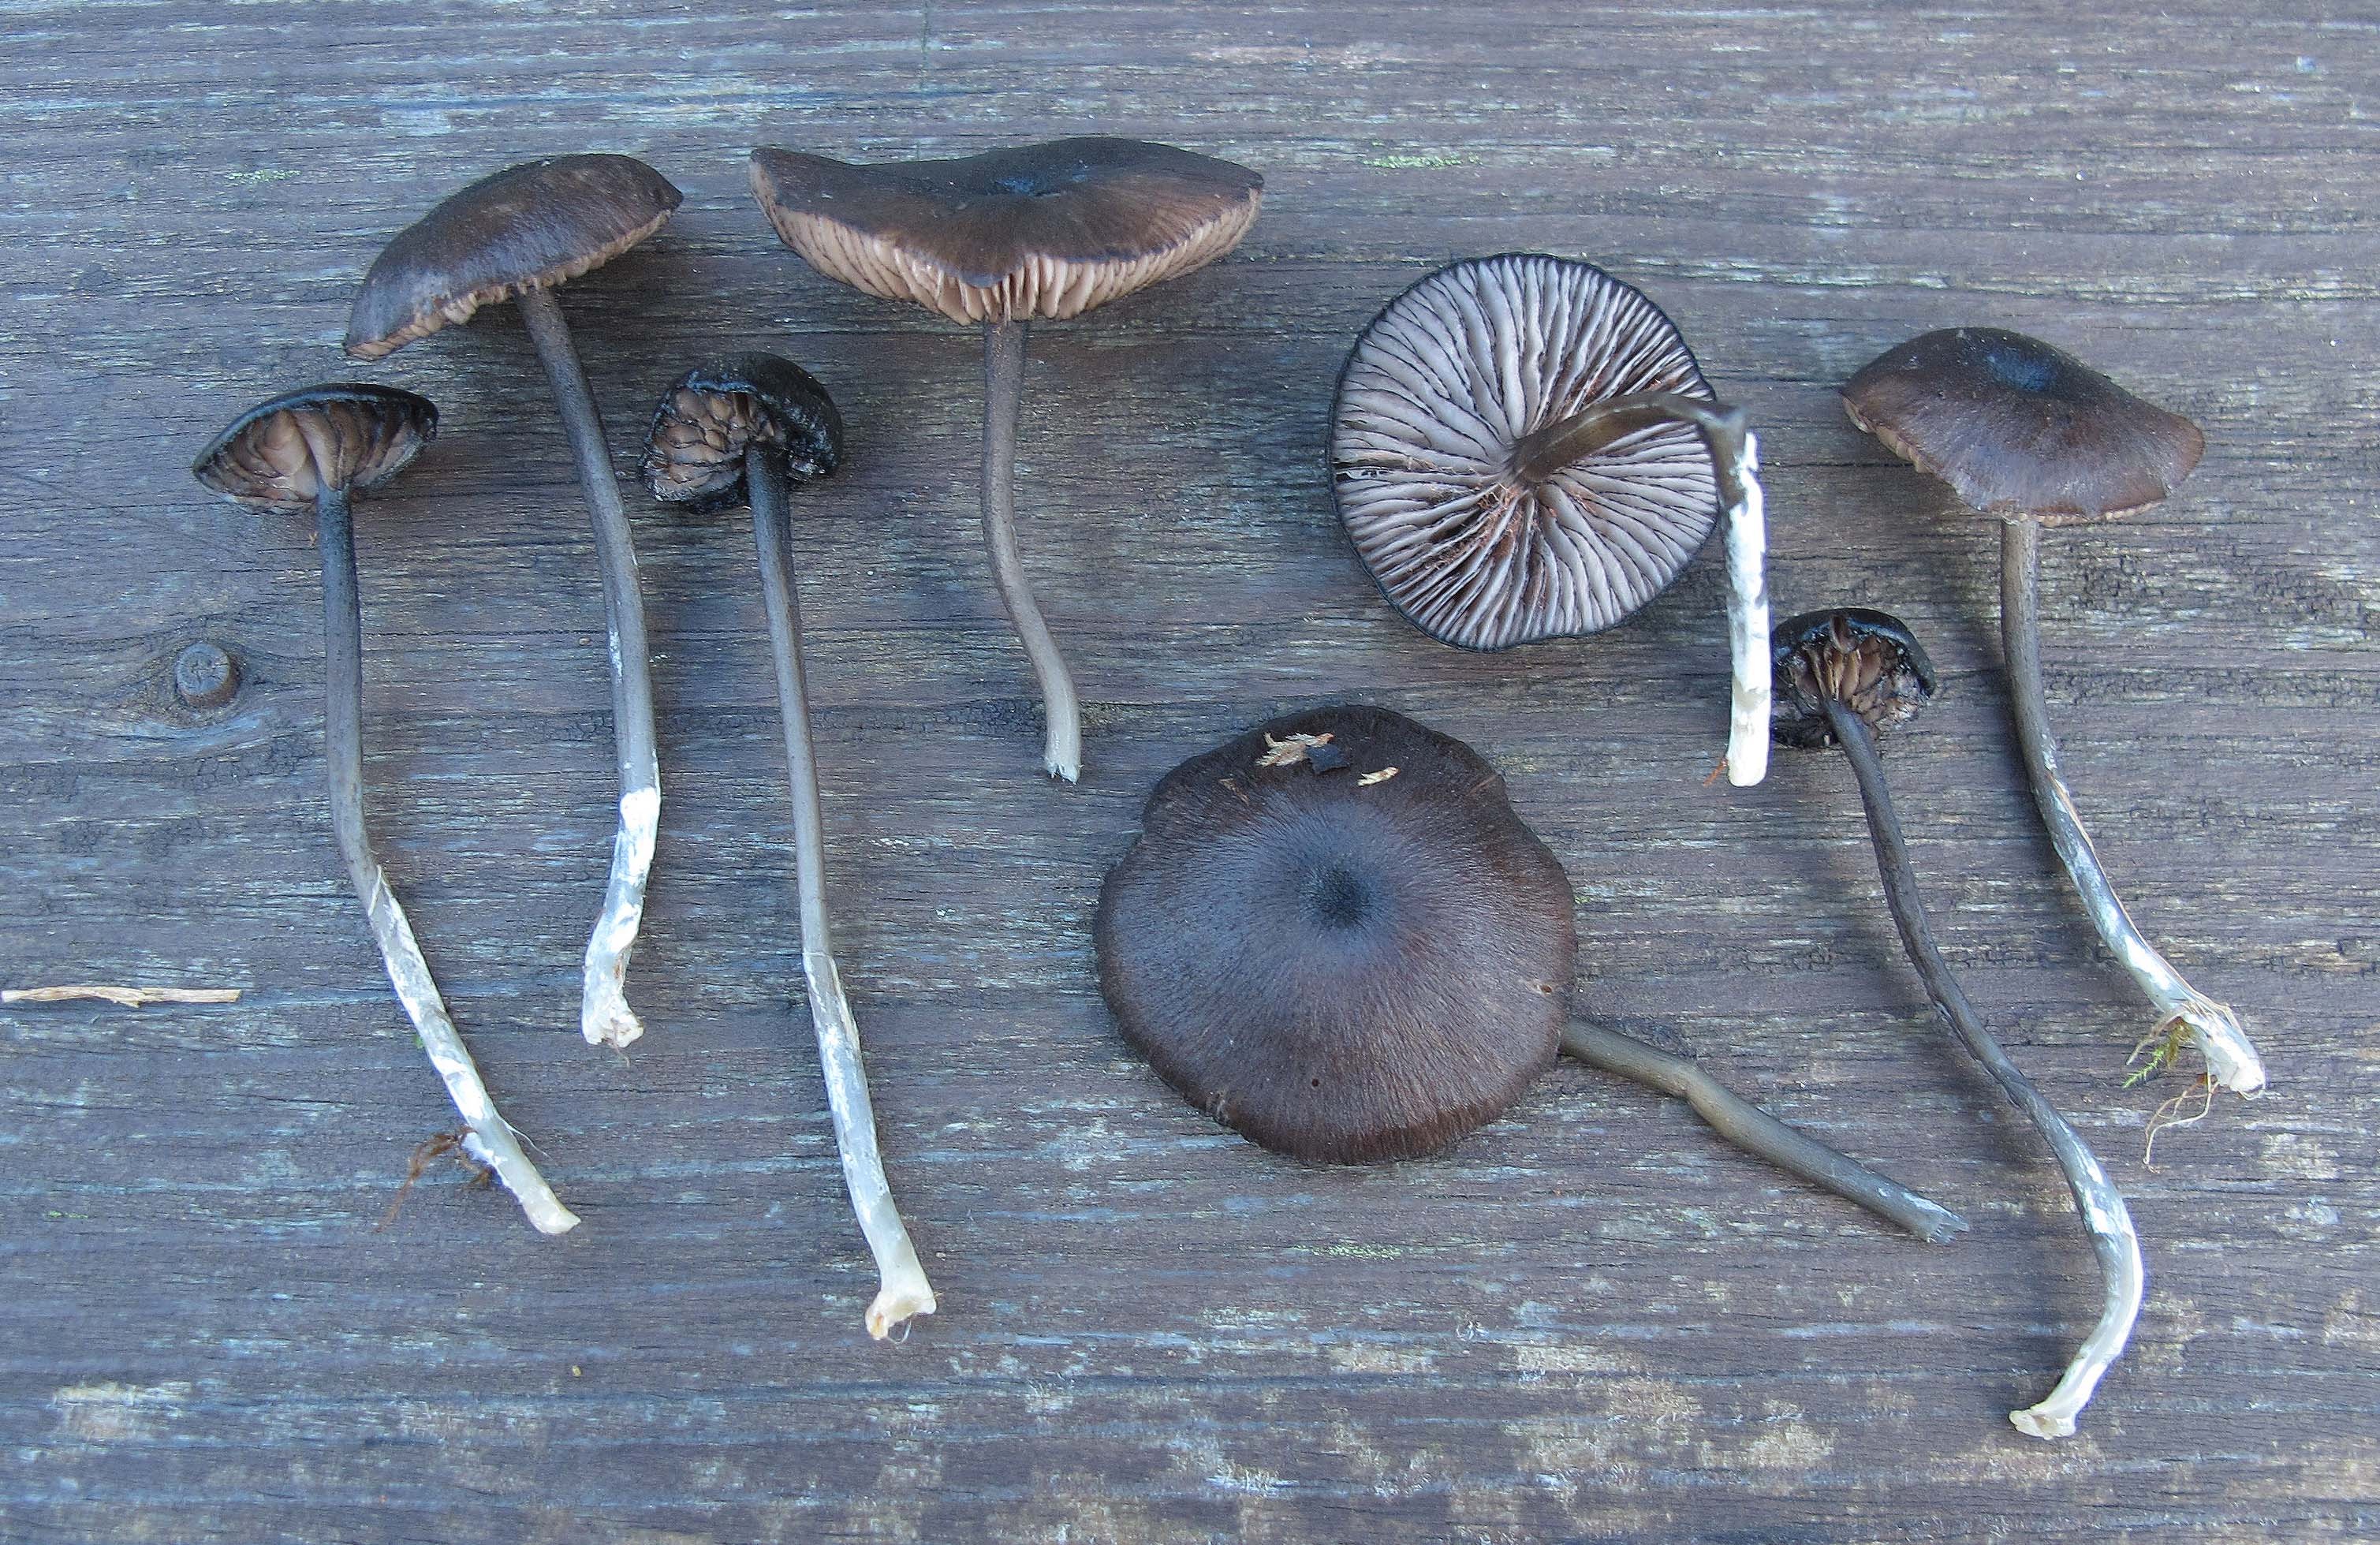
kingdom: Fungi
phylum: Basidiomycota
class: Agaricomycetes
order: Agaricales
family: Entolomataceae
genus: Entoloma
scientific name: Entoloma serrulatum
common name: Blue edge pinkgill
